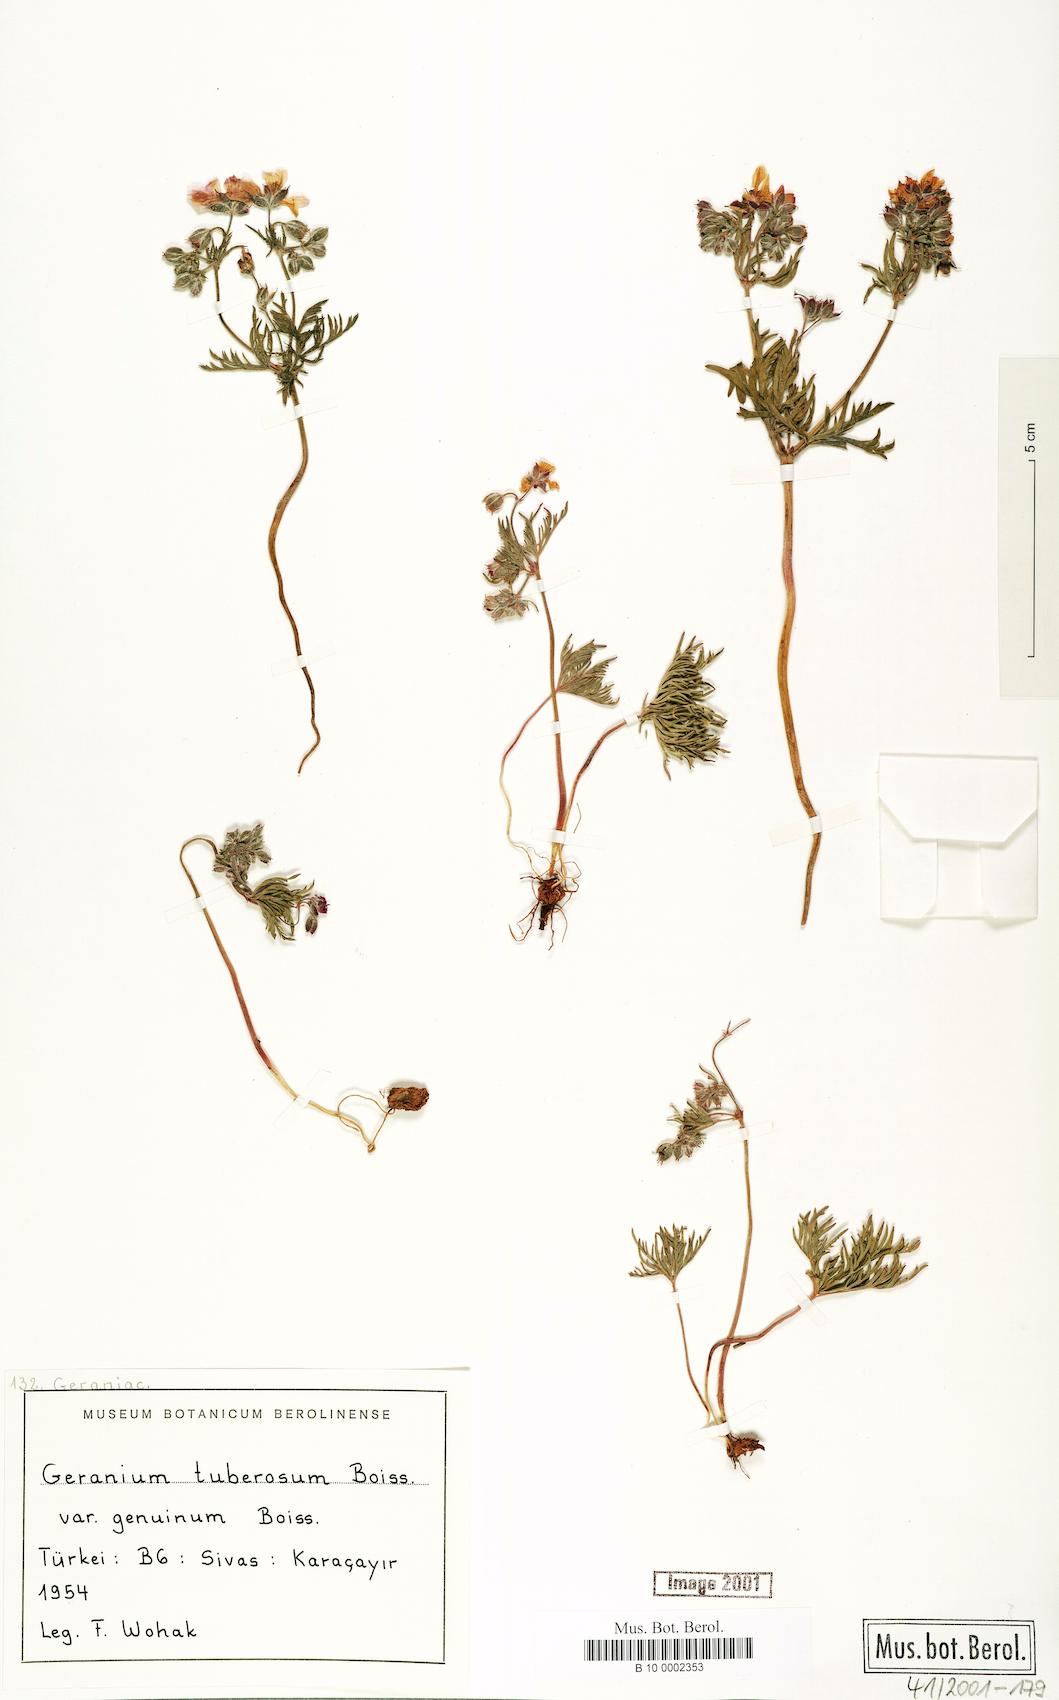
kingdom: Plantae
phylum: Tracheophyta
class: Magnoliopsida
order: Geraniales
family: Geraniaceae
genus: Geranium
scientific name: Geranium tuberosum
